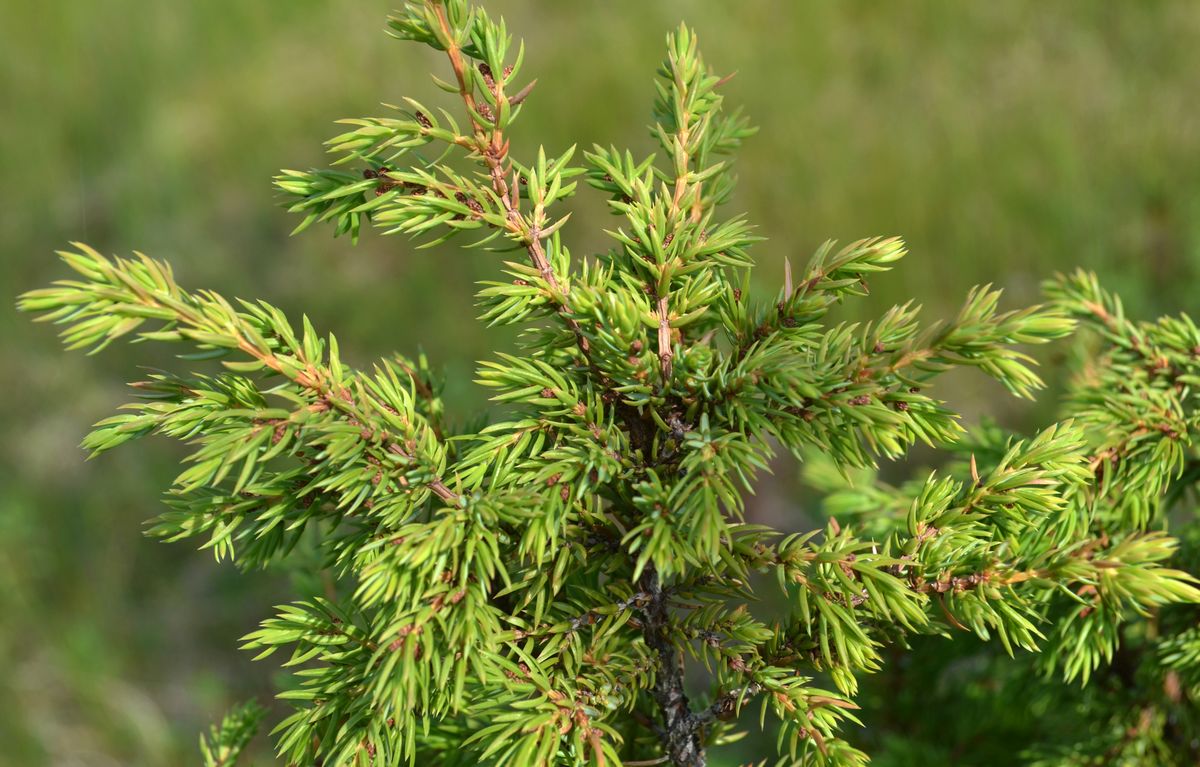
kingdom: Plantae
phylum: Tracheophyta
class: Pinopsida
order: Pinales
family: Cupressaceae
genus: Juniperus
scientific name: Juniperus communis
